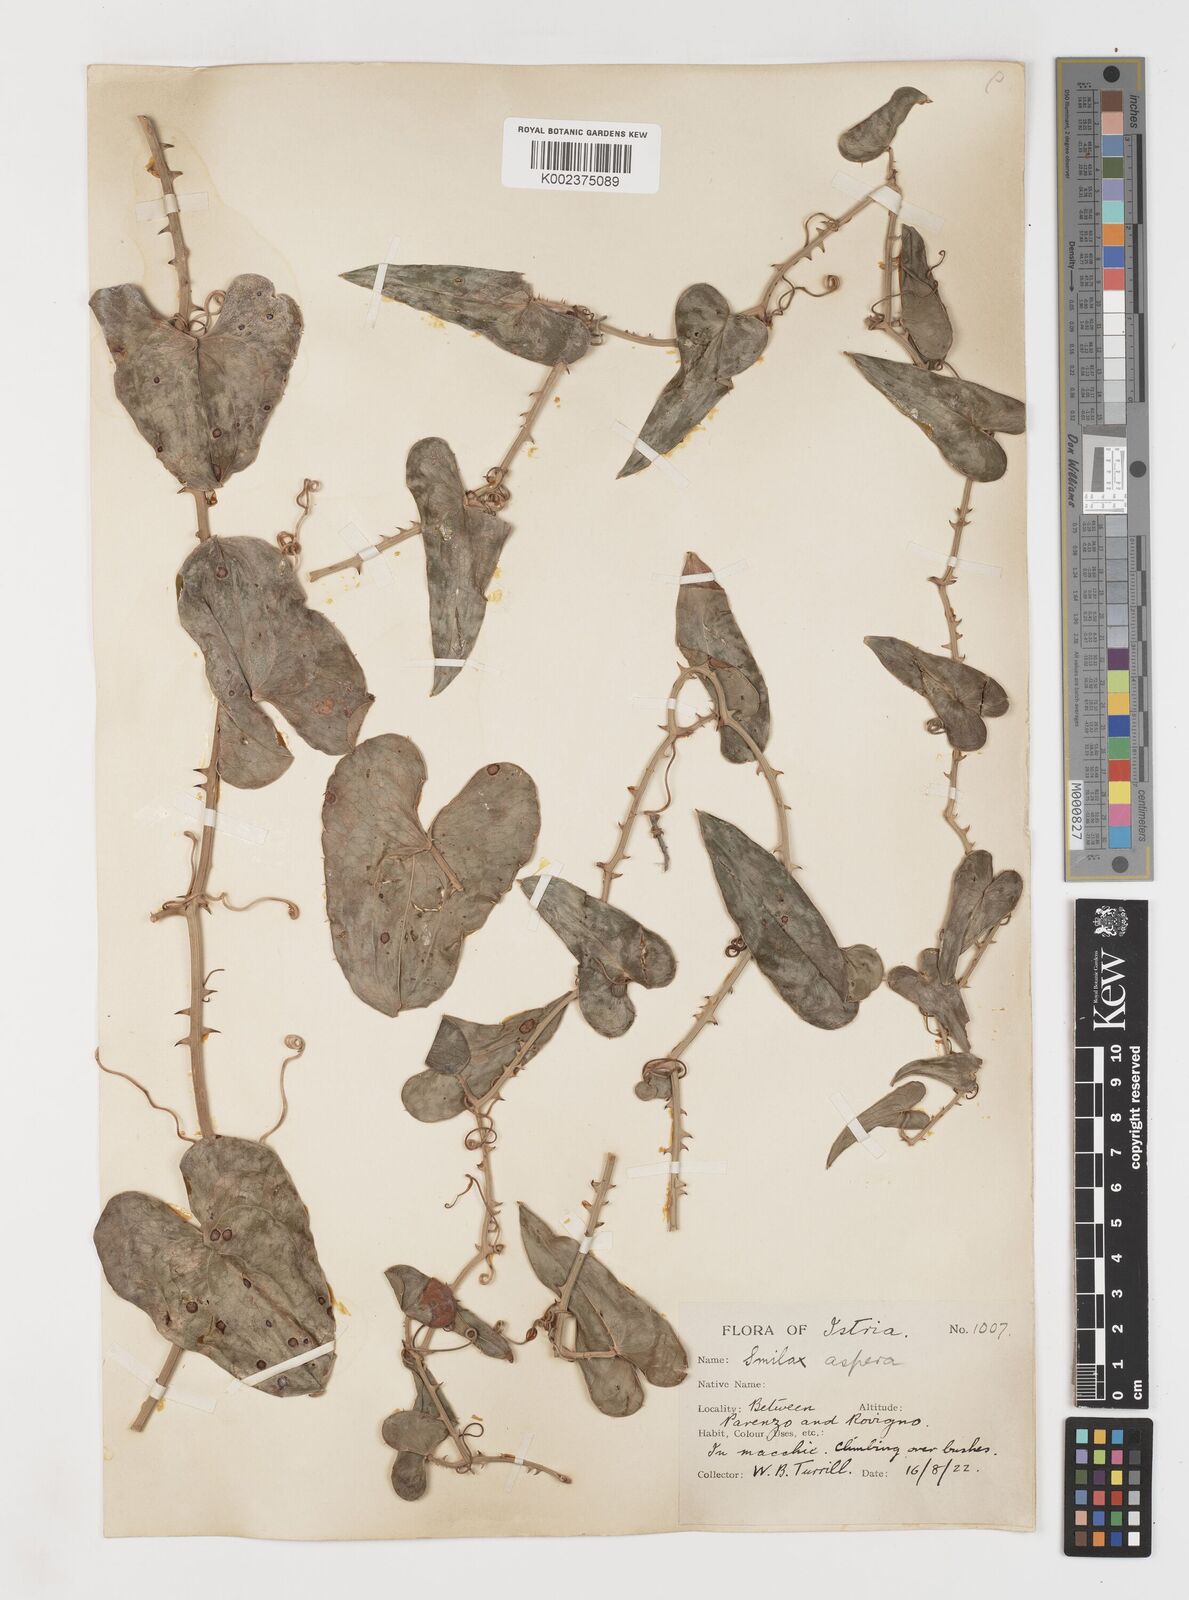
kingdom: Plantae
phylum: Tracheophyta
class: Liliopsida
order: Liliales
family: Smilacaceae
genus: Smilax
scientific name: Smilax aspera
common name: Common smilax
